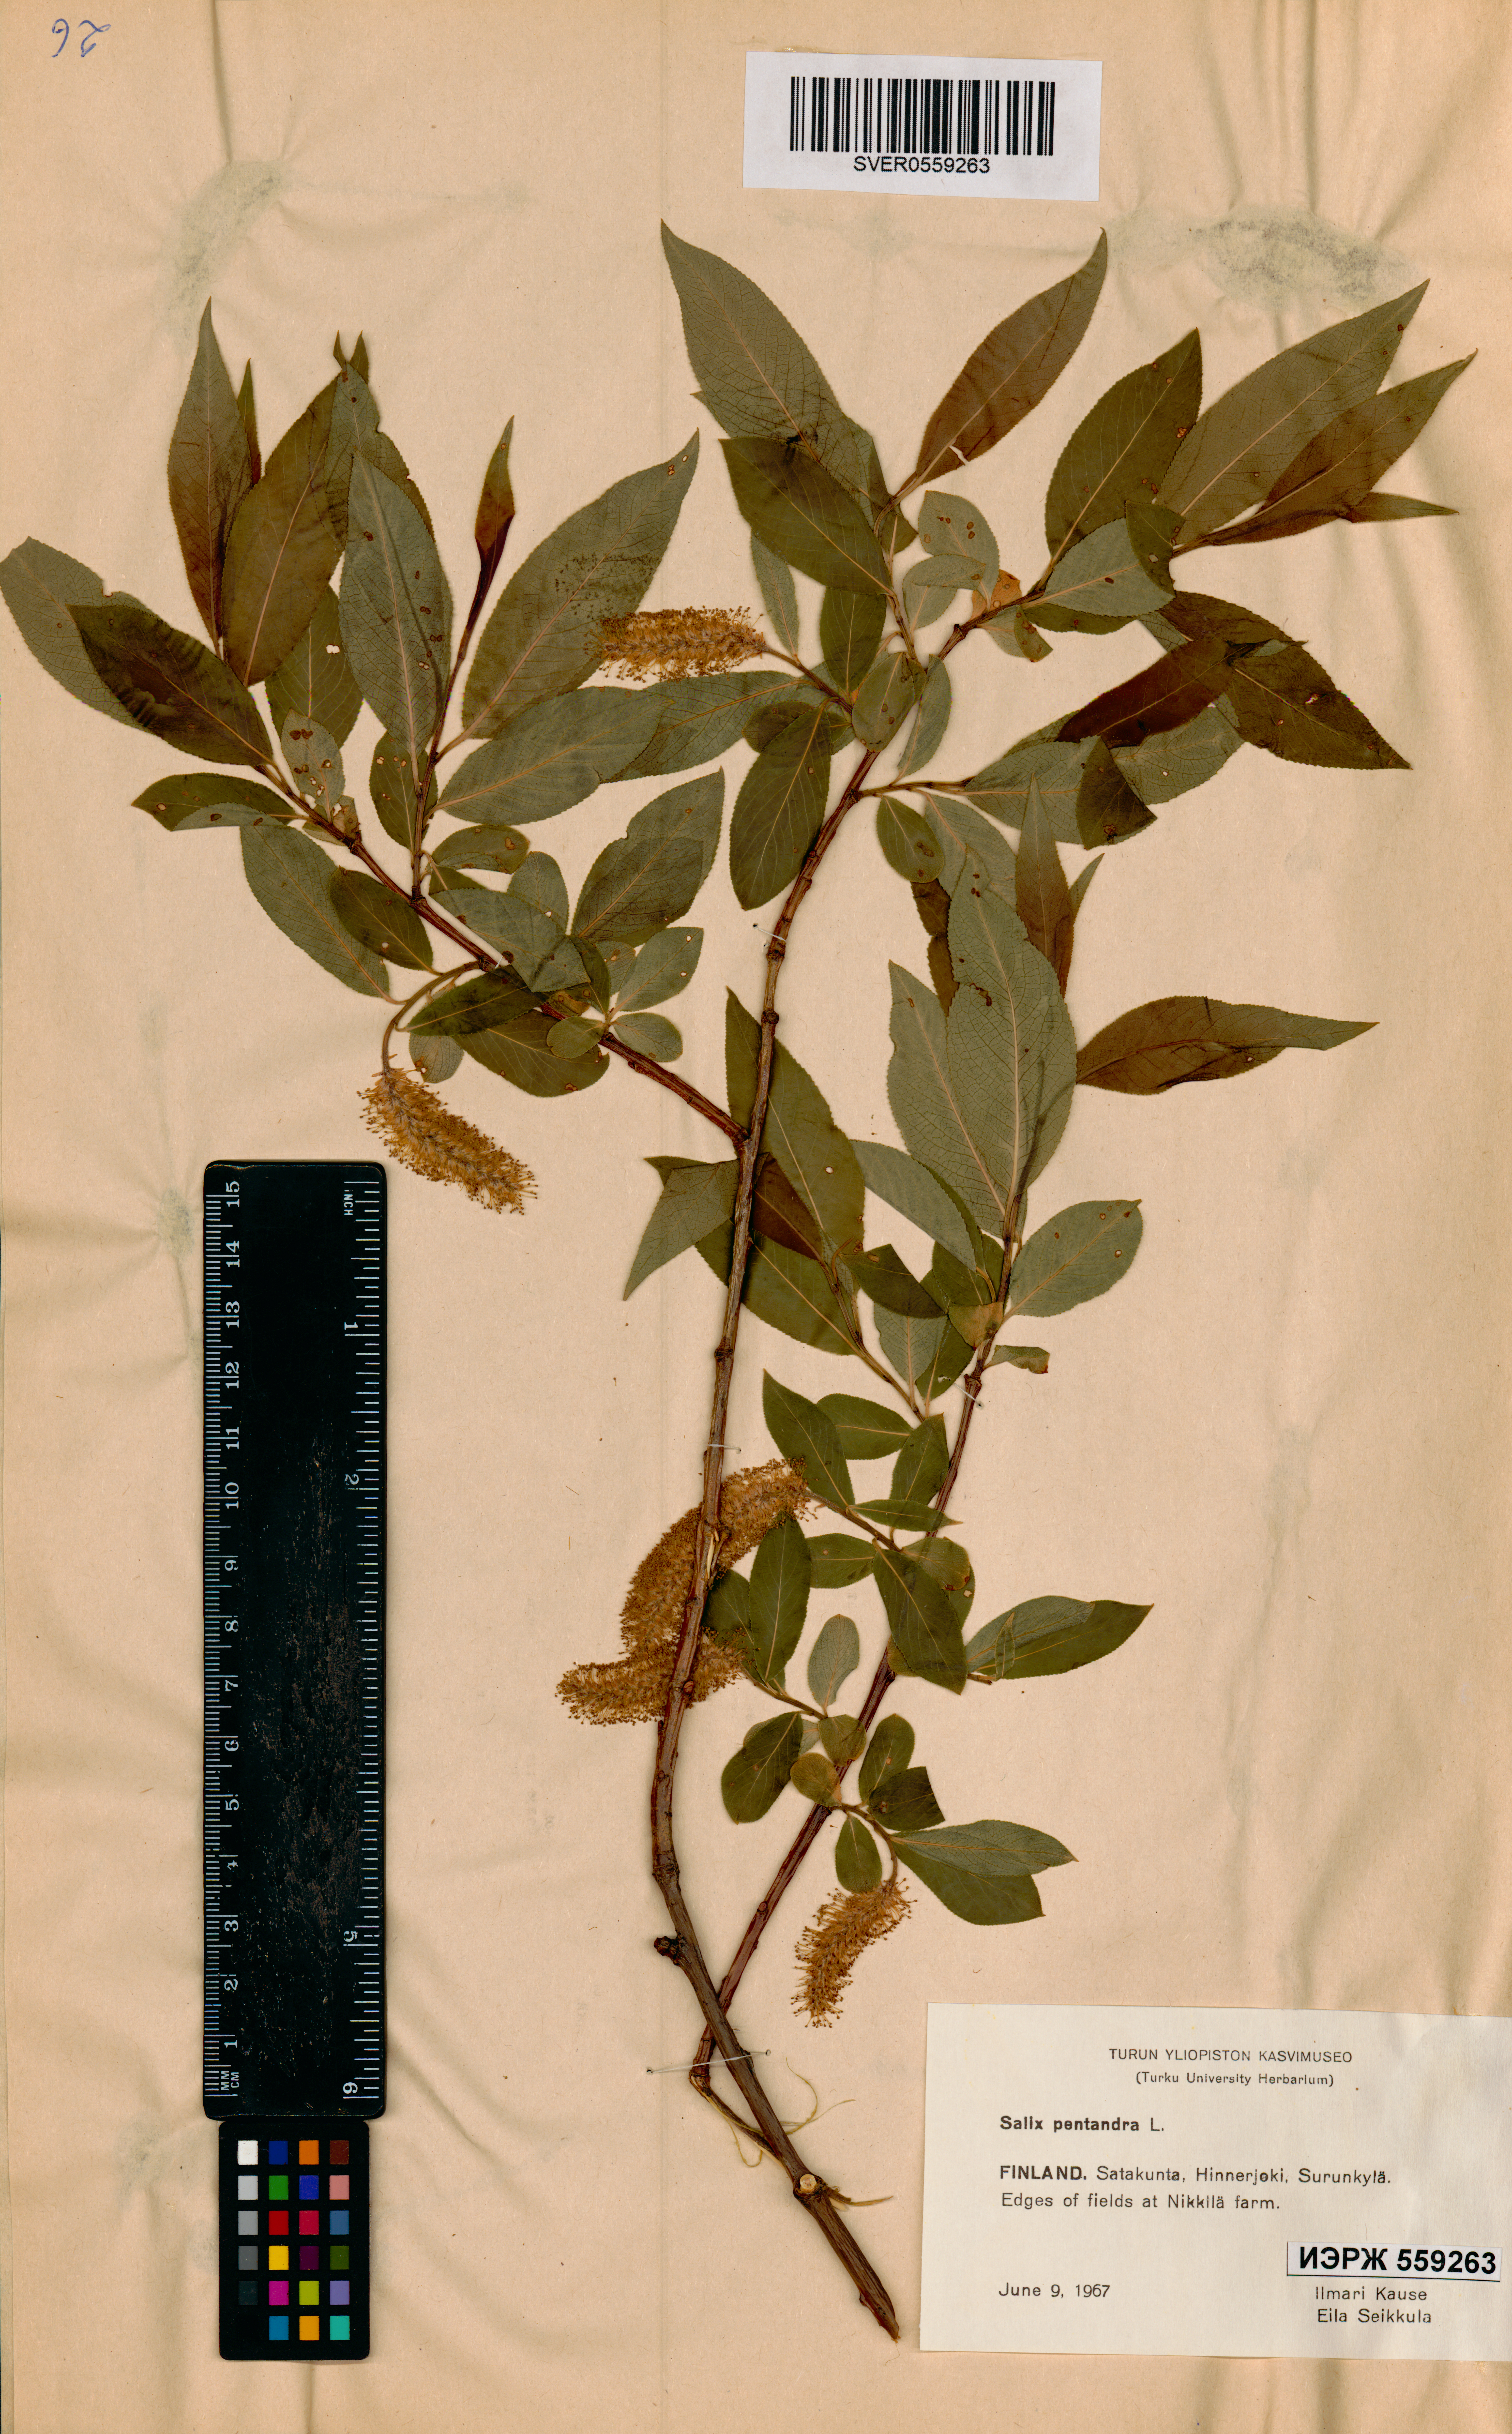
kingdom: Plantae
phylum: Tracheophyta
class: Magnoliopsida
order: Malpighiales
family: Salicaceae
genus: Salix
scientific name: Salix pentandra
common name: Bay willow
